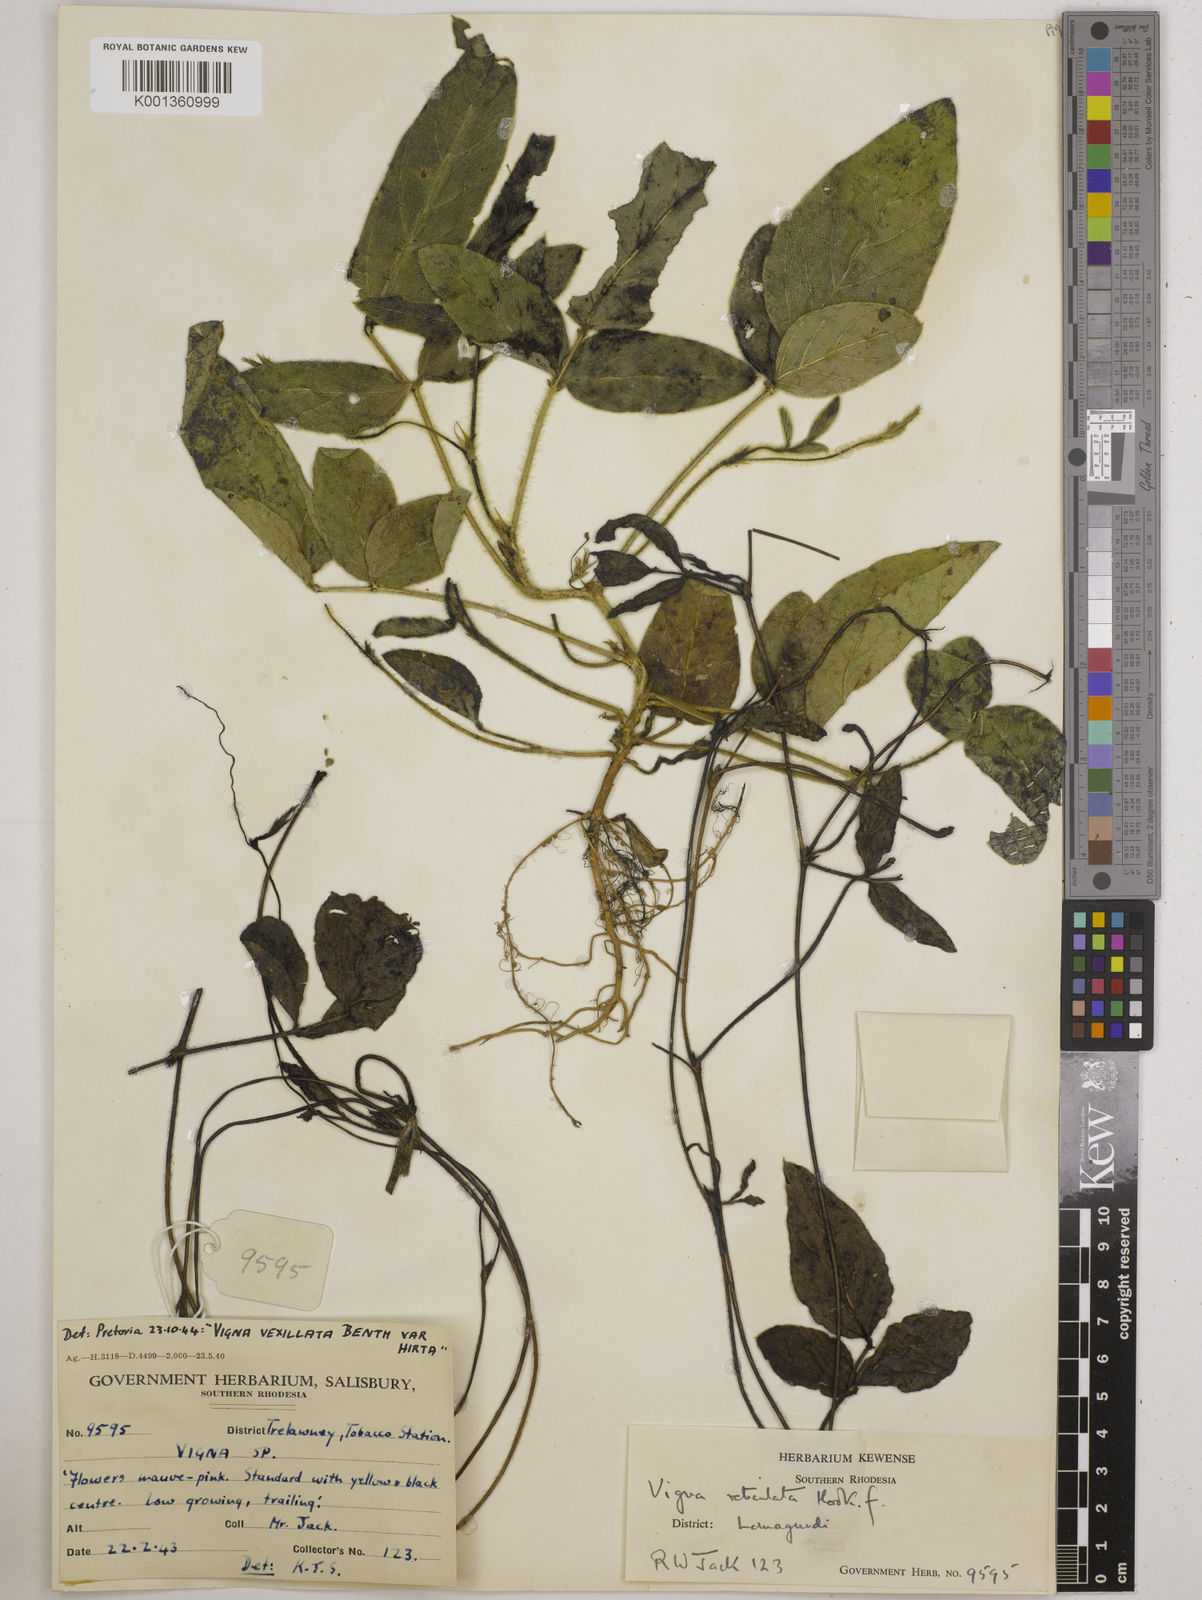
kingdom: Plantae
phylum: Tracheophyta
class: Magnoliopsida
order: Fabales
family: Fabaceae
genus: Vigna
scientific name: Vigna reticulata
